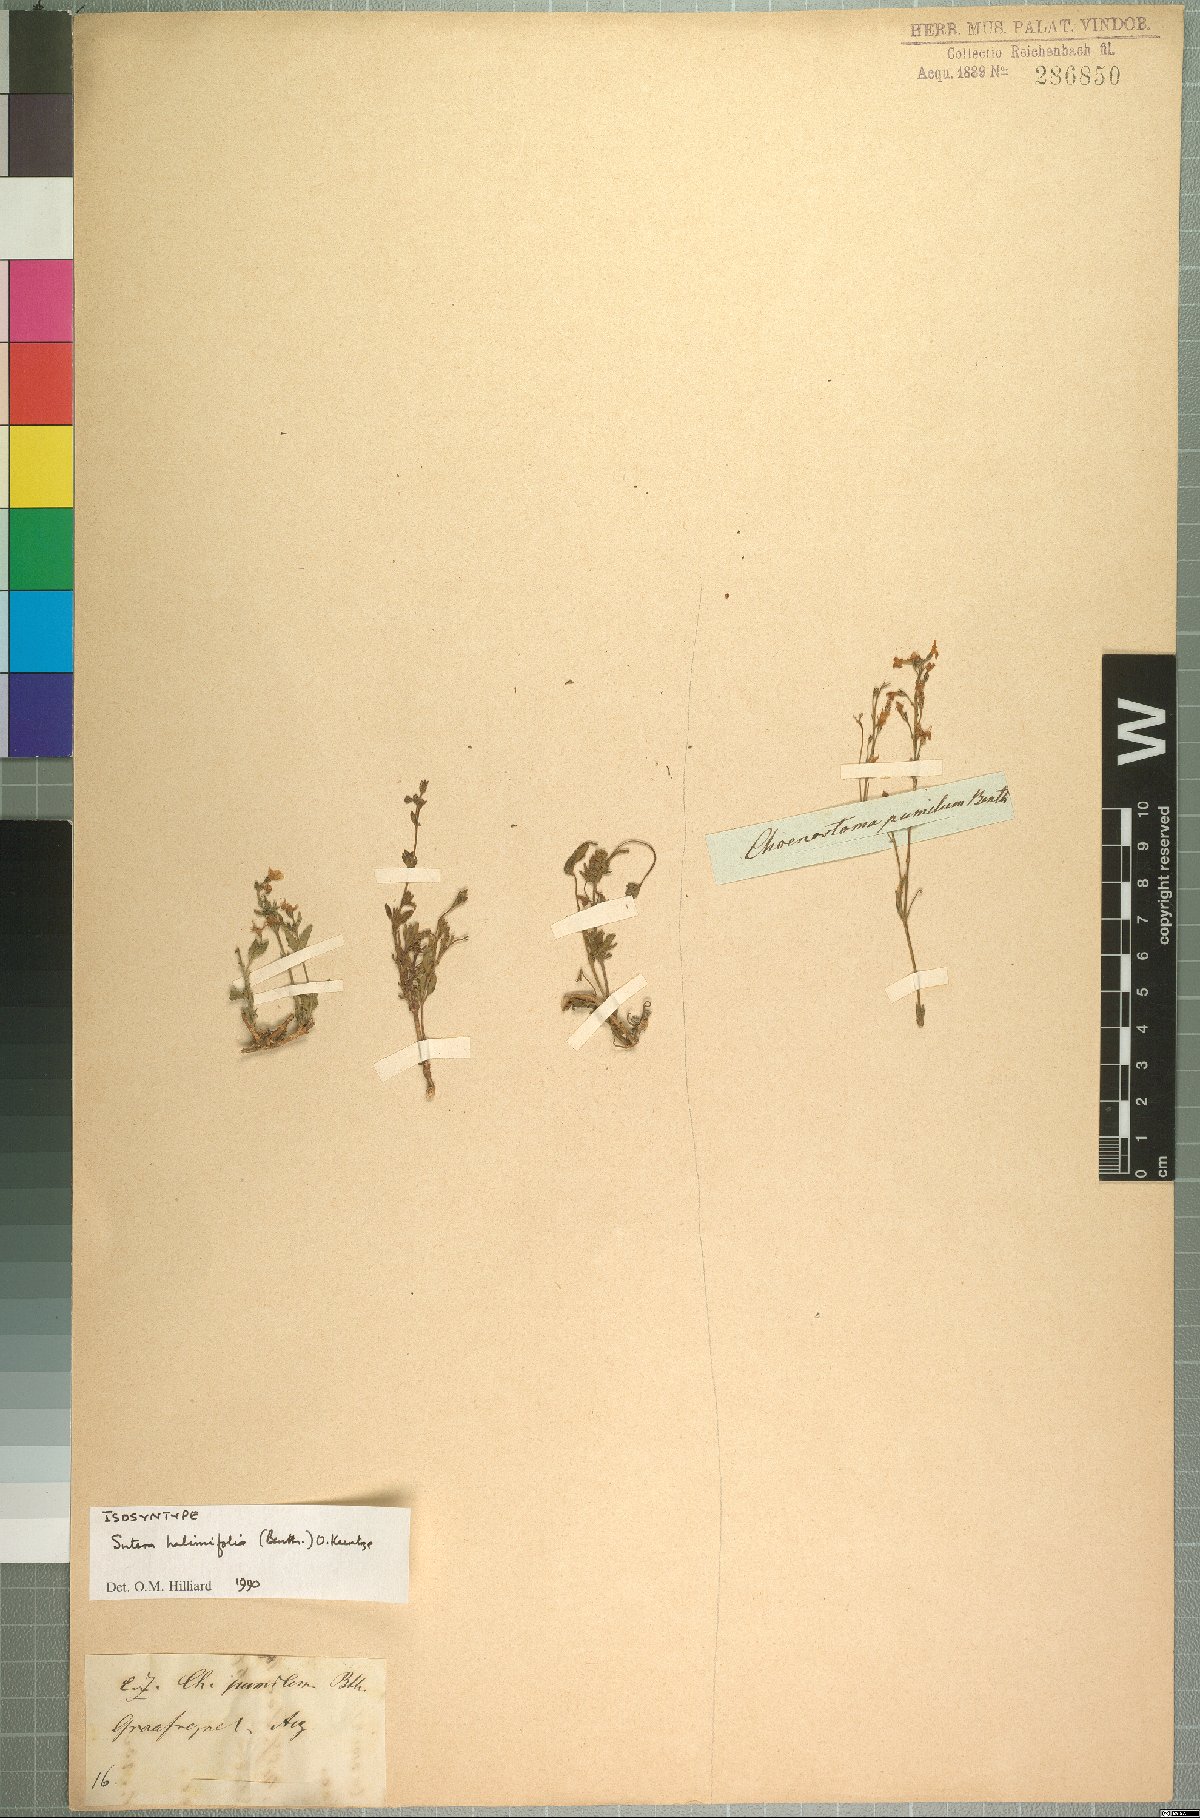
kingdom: Plantae
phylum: Tracheophyta
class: Magnoliopsida
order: Lamiales
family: Scrophulariaceae
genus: Chaenostoma
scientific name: Chaenostoma halimifolium
